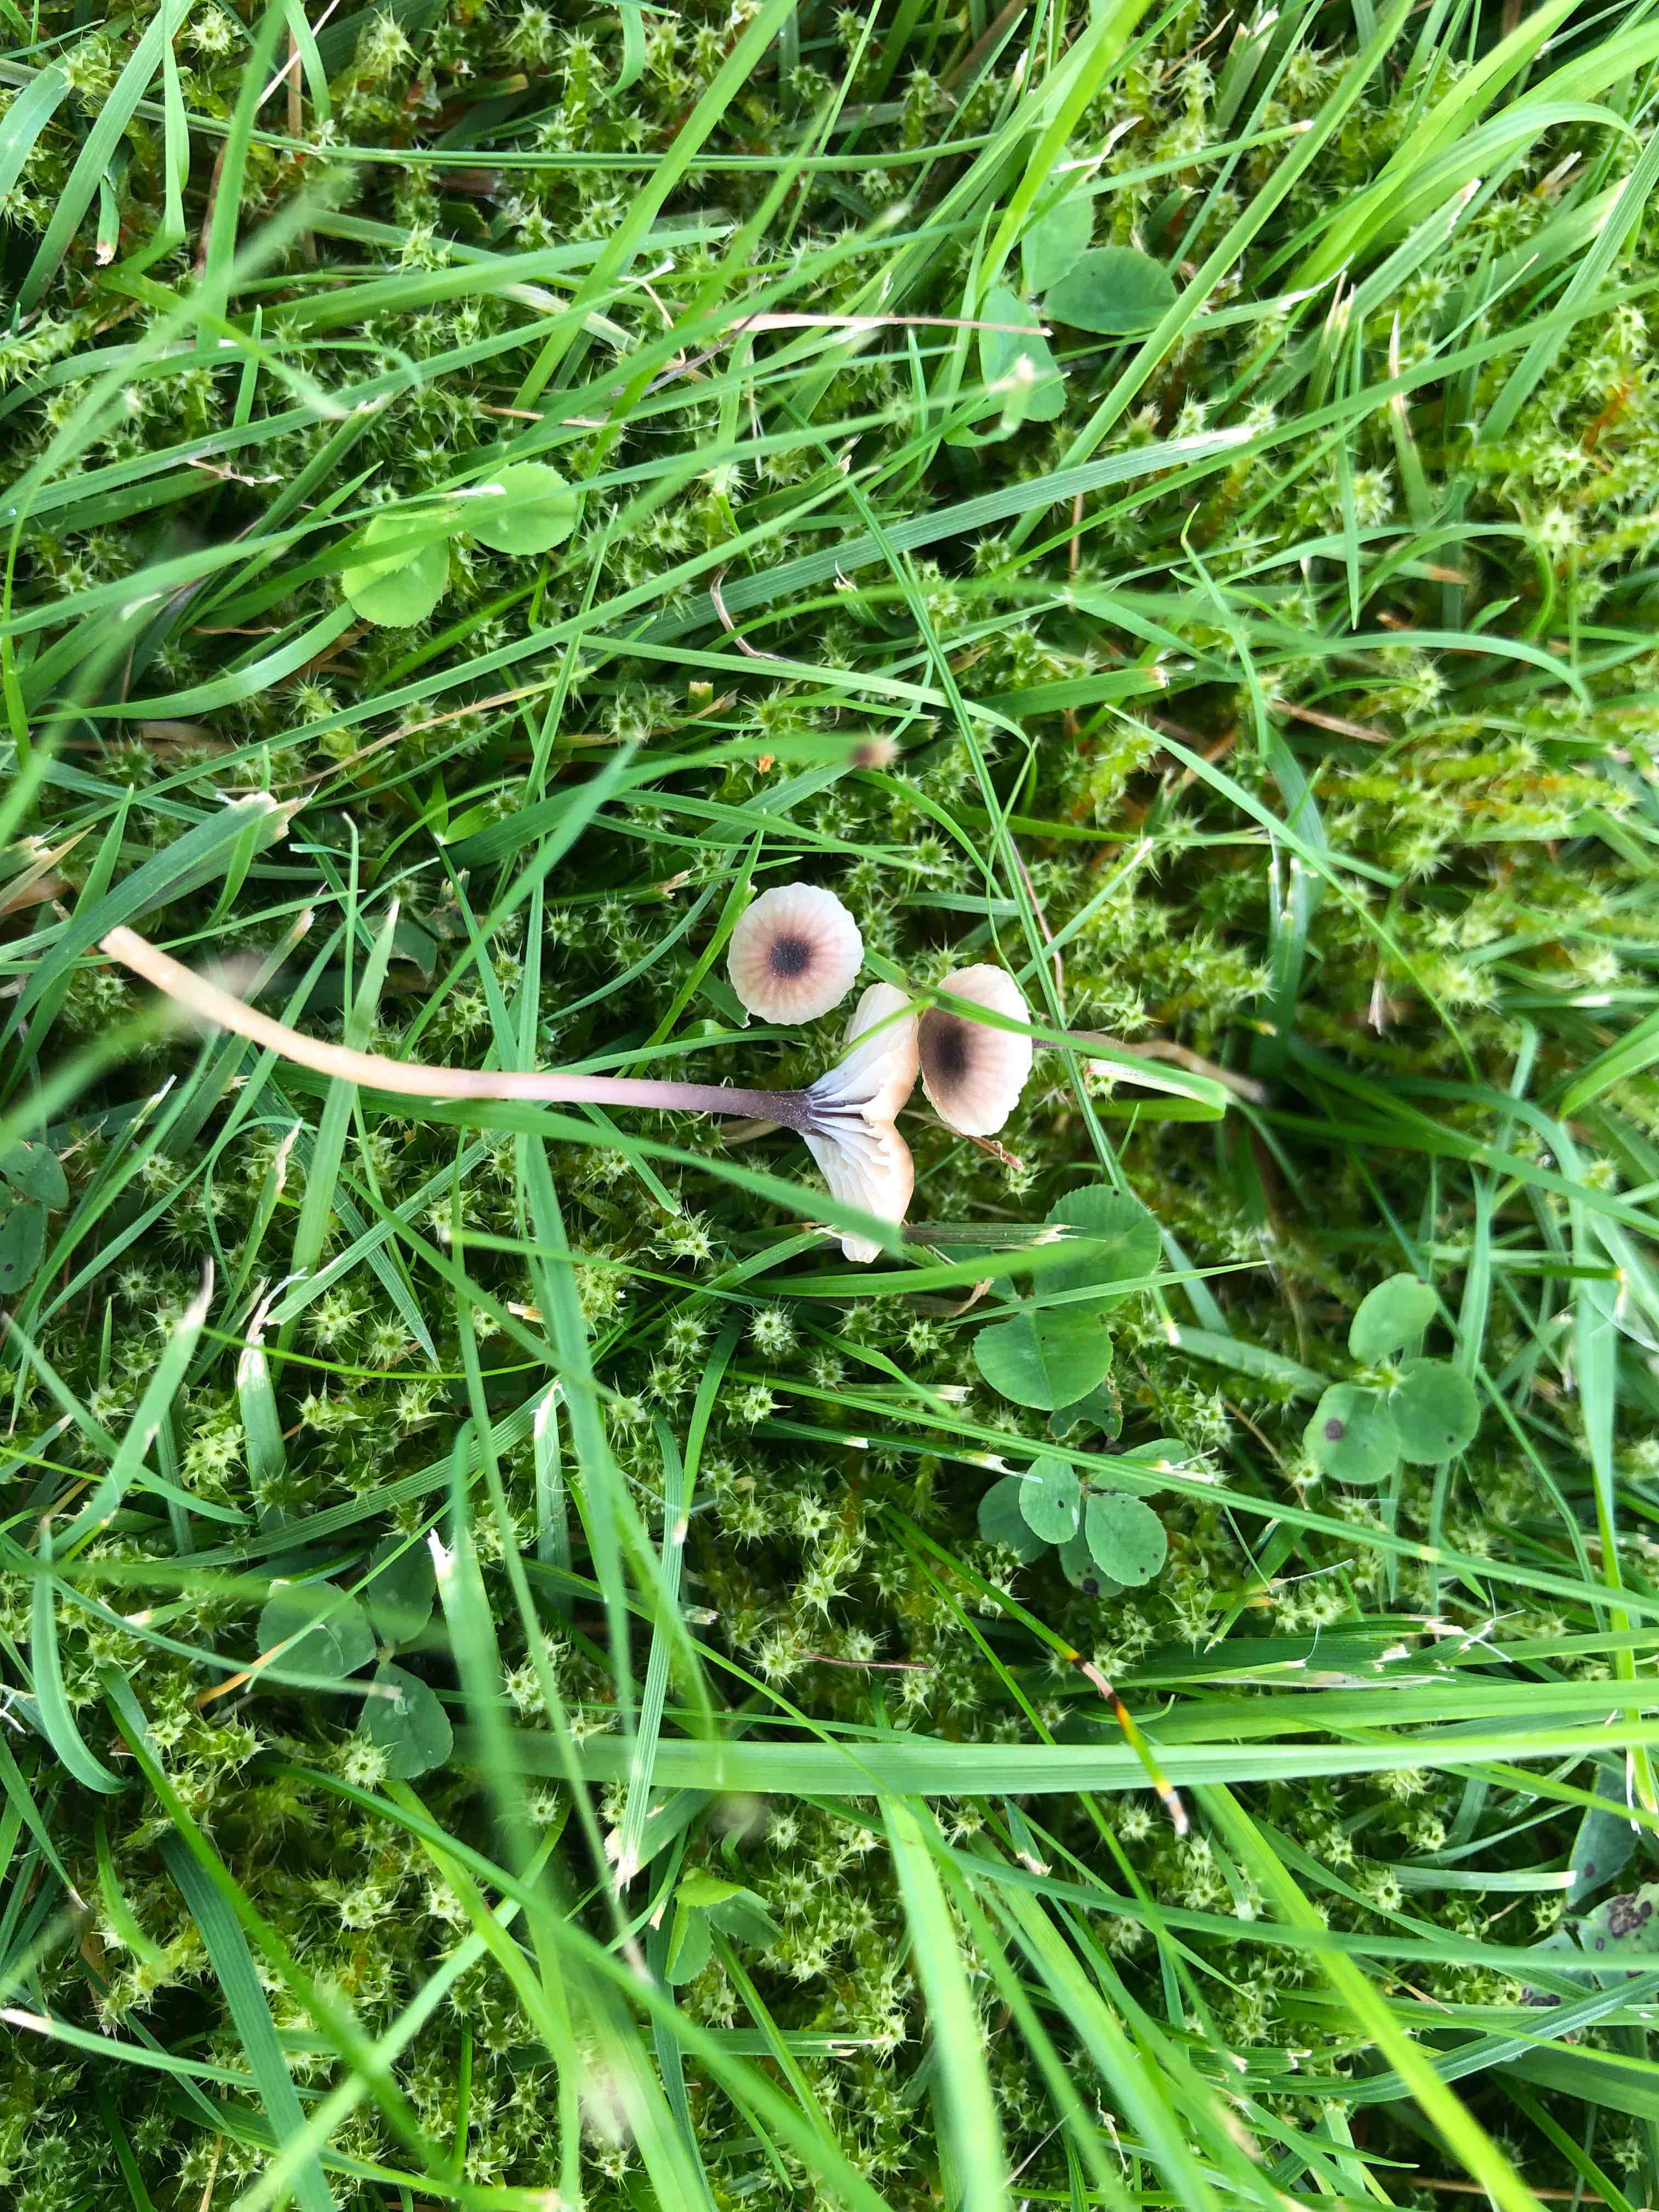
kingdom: Fungi
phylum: Basidiomycota
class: Agaricomycetes
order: Hymenochaetales
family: Rickenellaceae
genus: Rickenella
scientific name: Rickenella swartzii
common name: finstokket mosnavlehat
